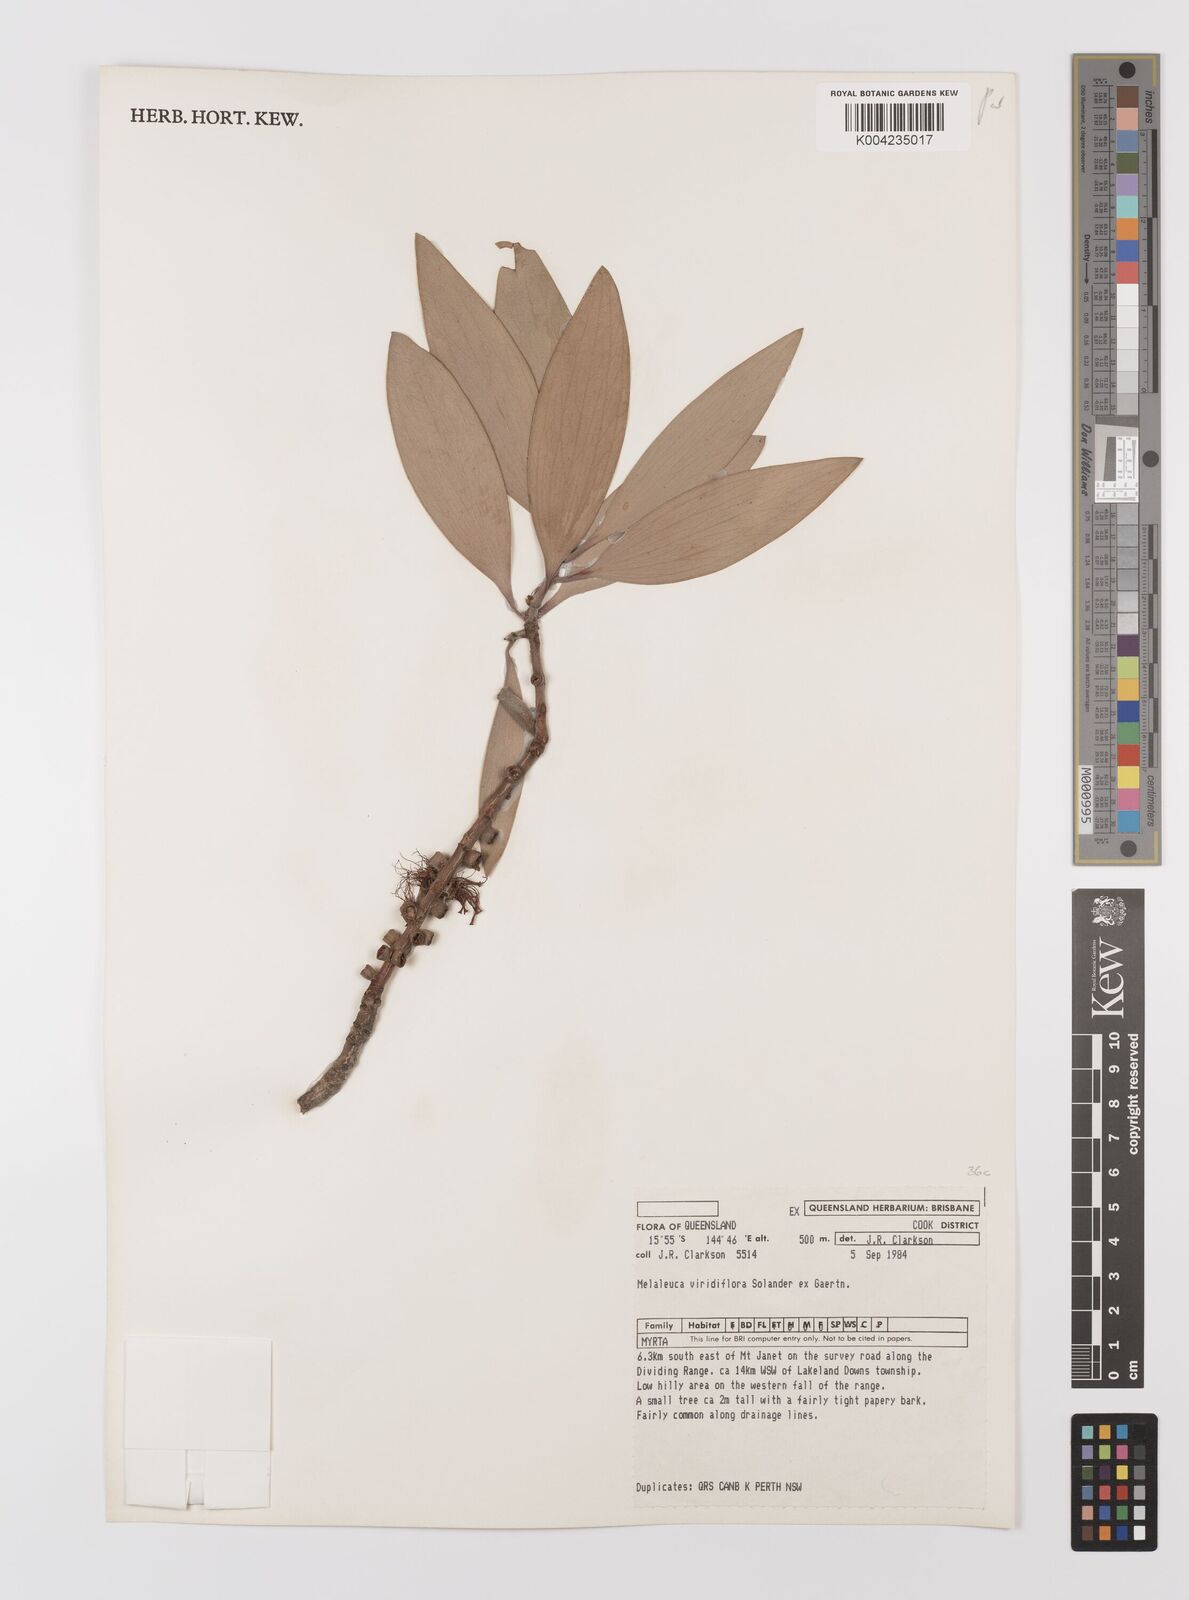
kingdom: Plantae
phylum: Tracheophyta
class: Magnoliopsida
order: Myrtales
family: Myrtaceae
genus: Melaleuca
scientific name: Melaleuca viridiflora
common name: Brown-leaved paperbark
